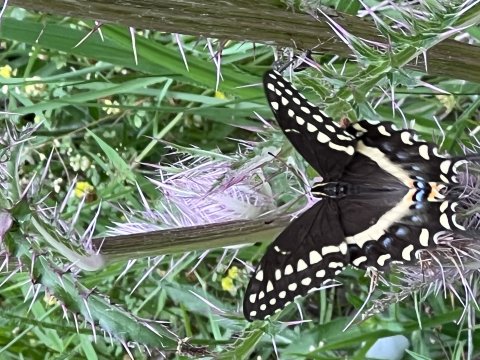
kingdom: Animalia
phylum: Arthropoda
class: Insecta
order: Lepidoptera
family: Papilionidae
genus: Pterourus
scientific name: Pterourus palamedes
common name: Palamedes Swallowtail
